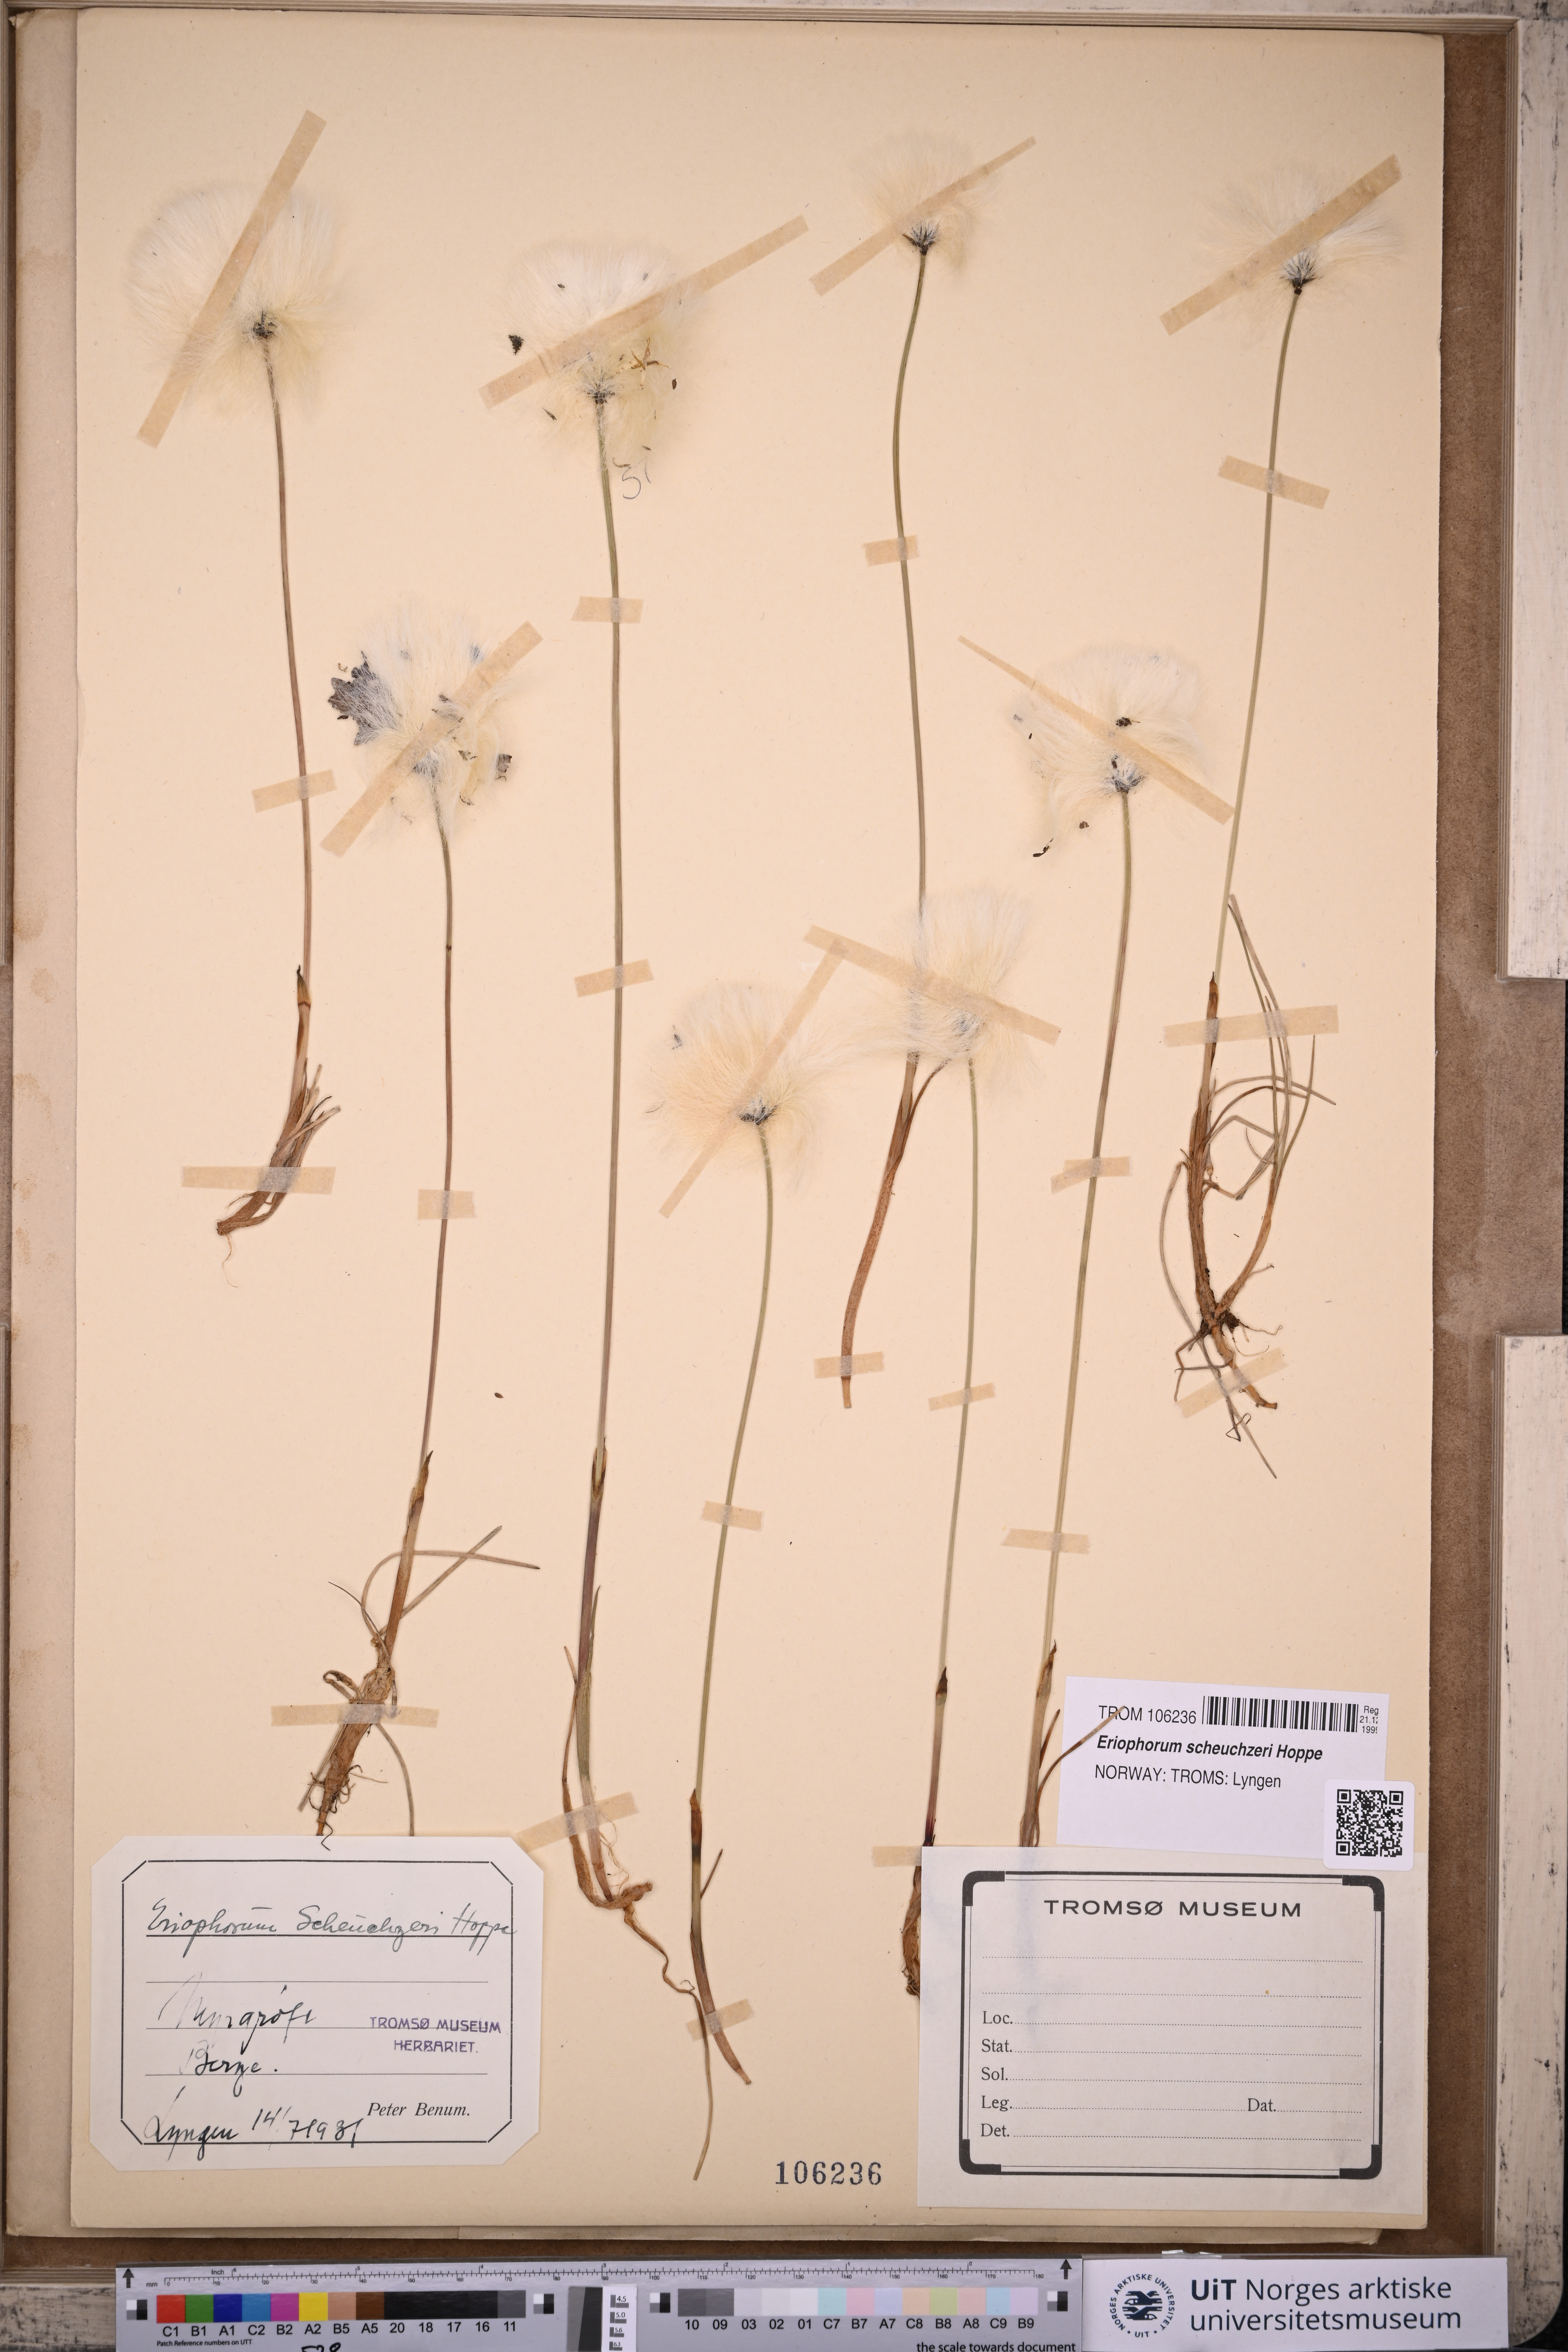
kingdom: Plantae
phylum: Tracheophyta
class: Liliopsida
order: Poales
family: Cyperaceae
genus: Eriophorum
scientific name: Eriophorum scheuchzeri
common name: Scheuchzer's cottongrass
